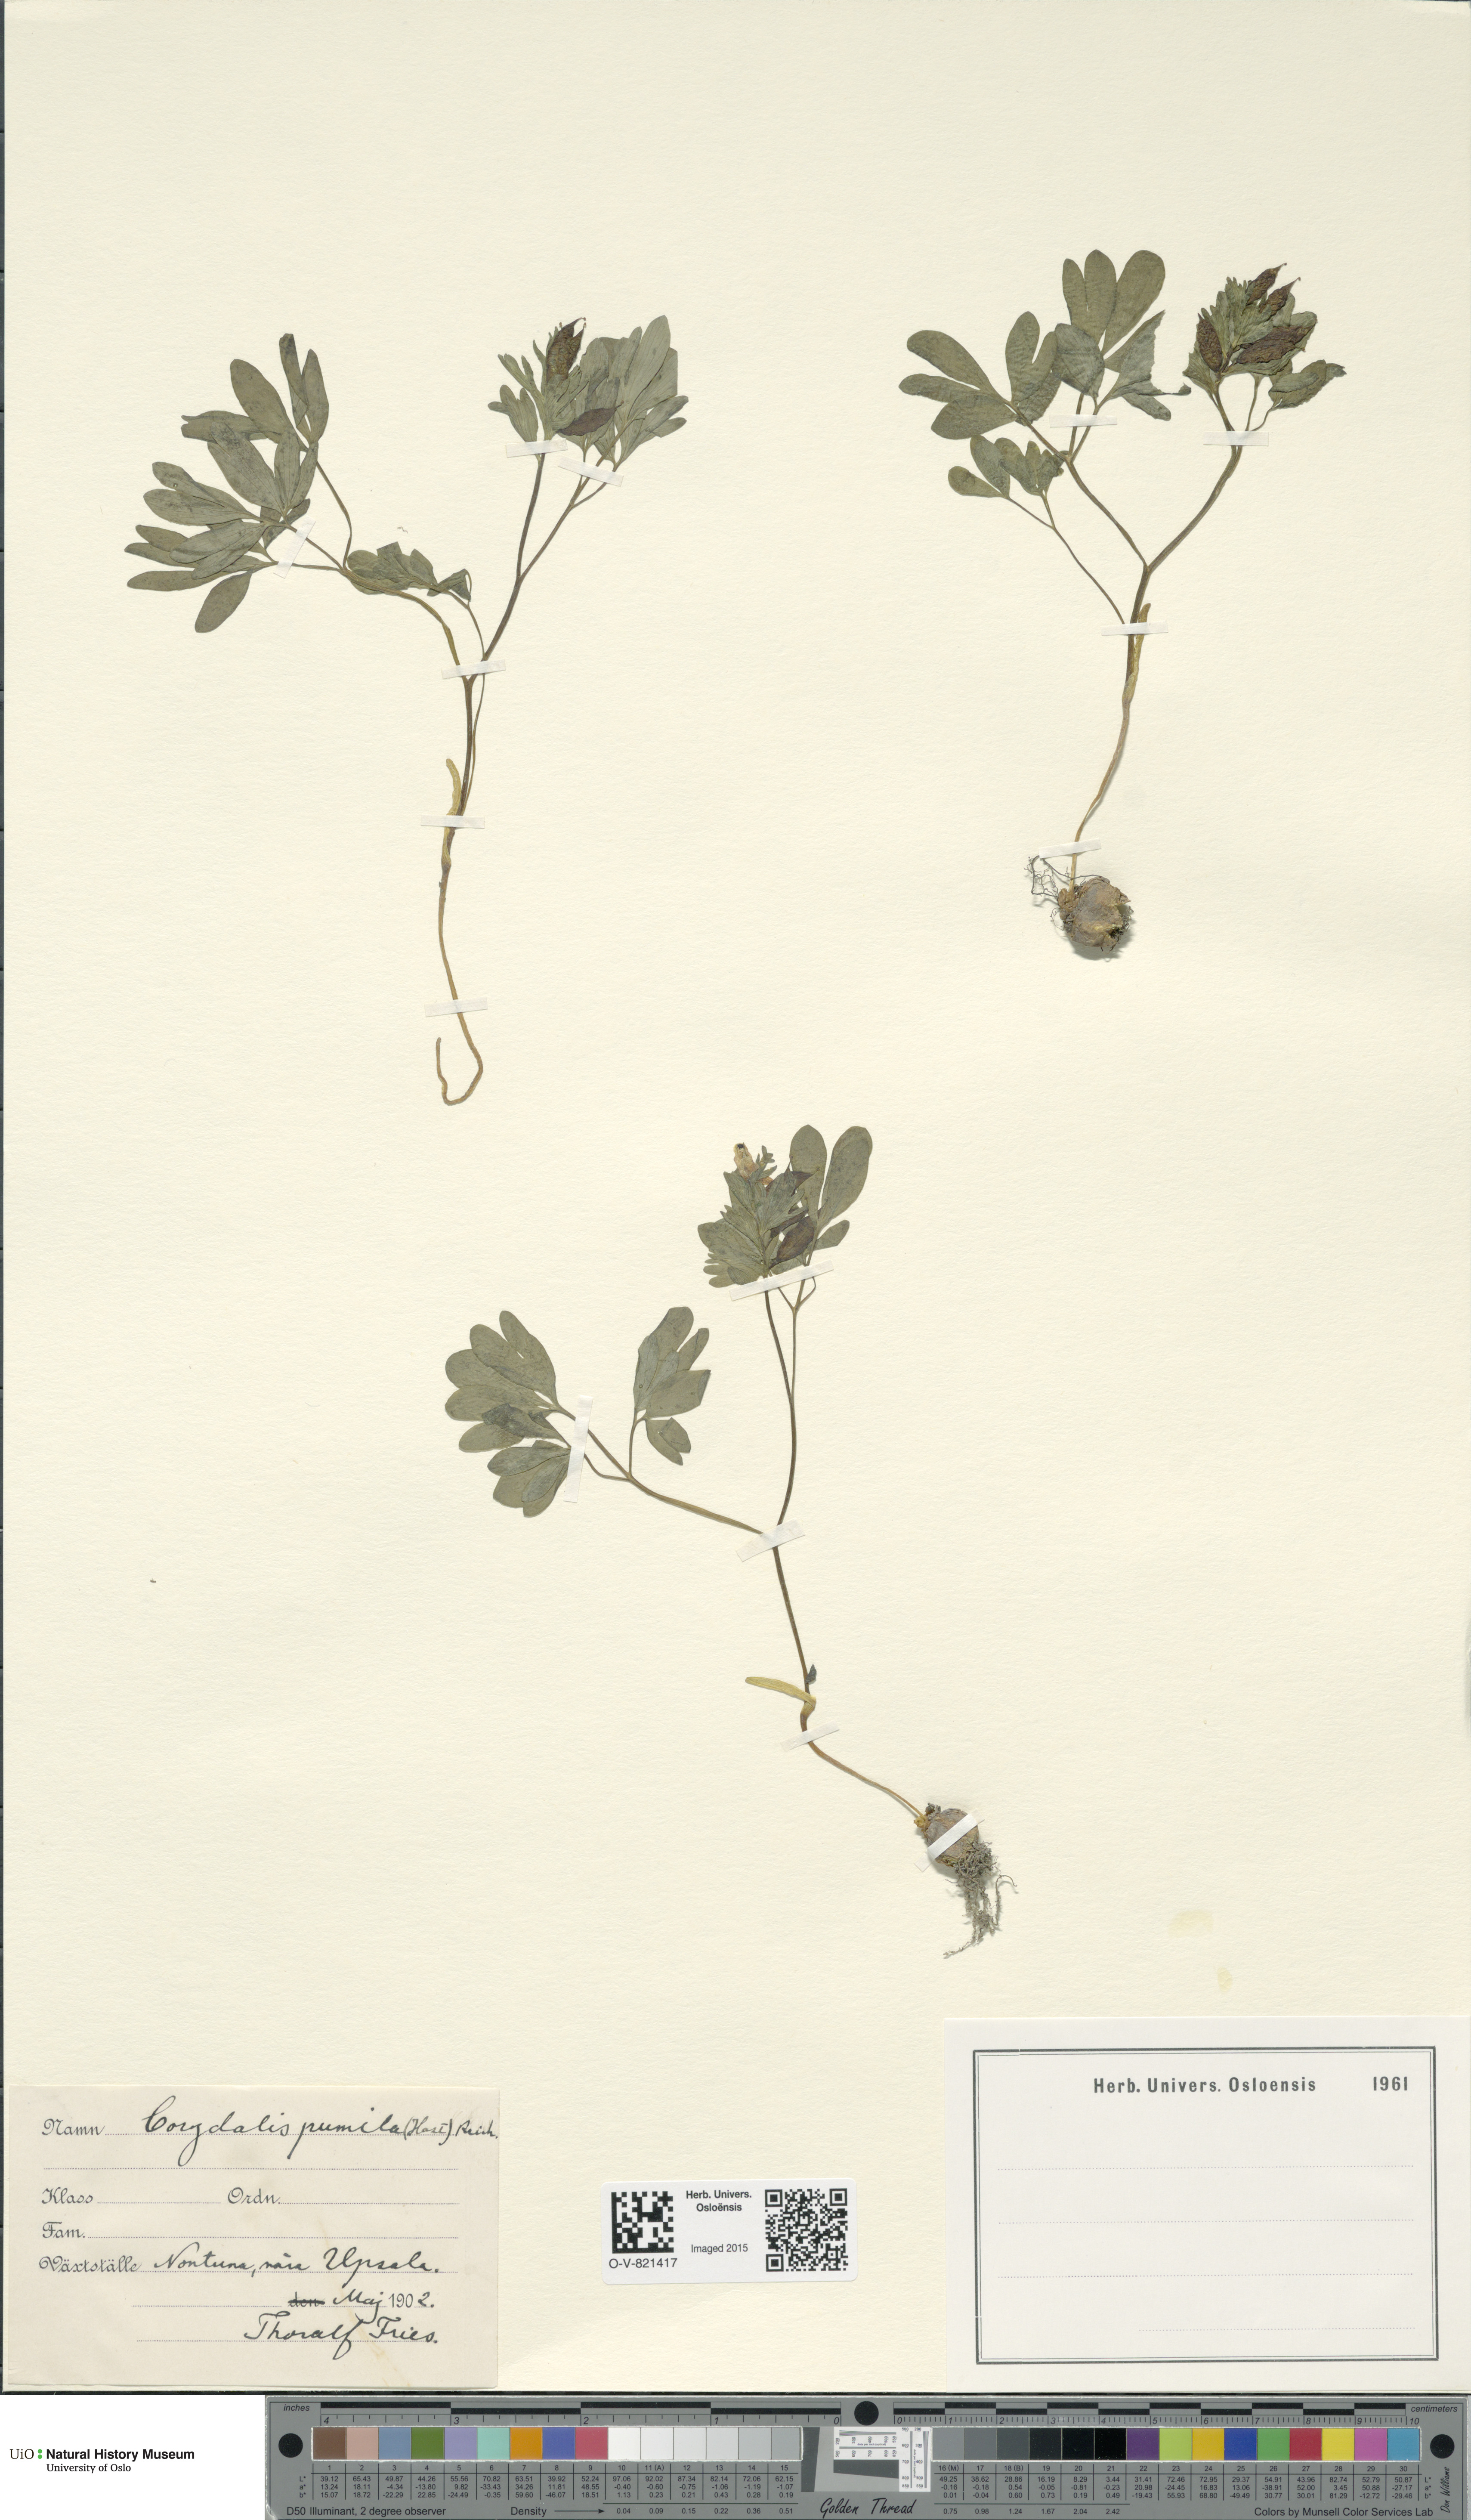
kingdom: Plantae
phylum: Tracheophyta
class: Magnoliopsida
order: Ranunculales
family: Papaveraceae
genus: Corydalis
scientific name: Corydalis pumila
